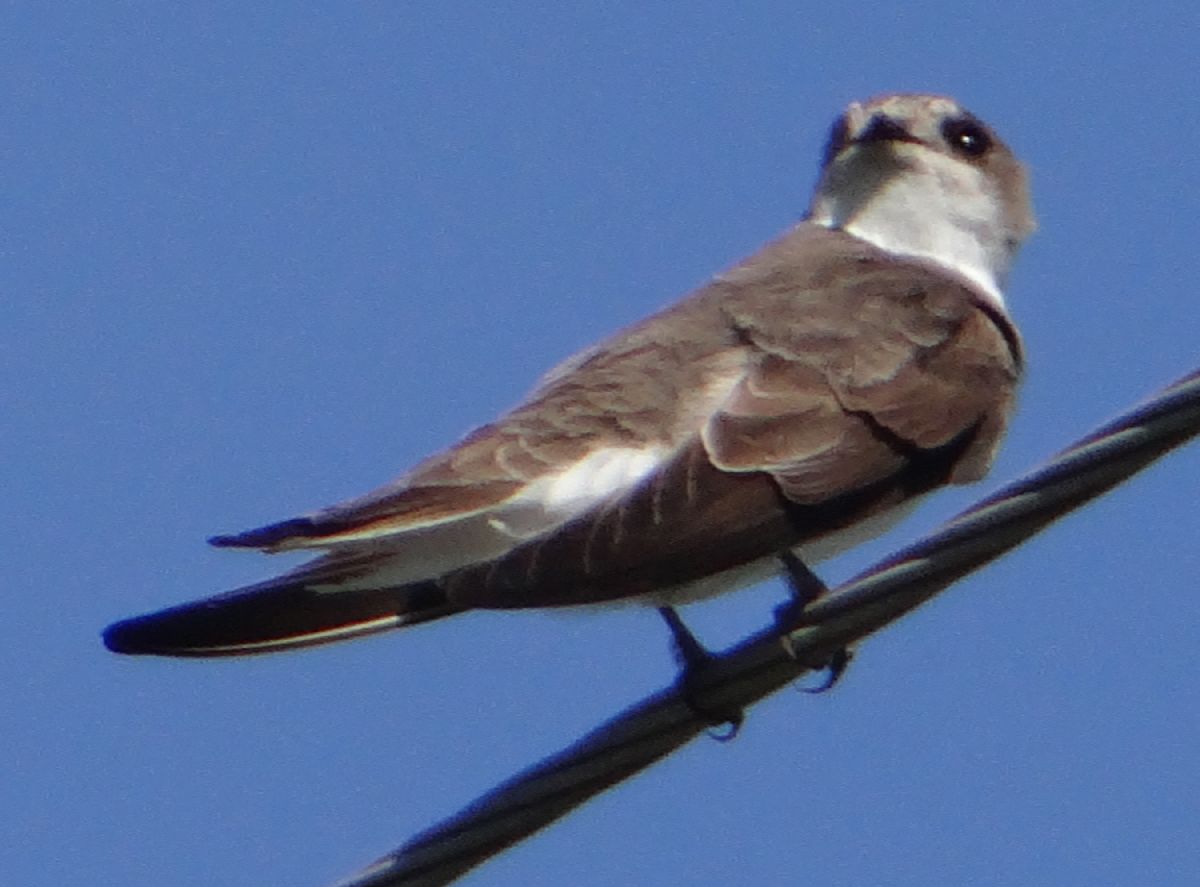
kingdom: Animalia
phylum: Chordata
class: Aves
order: Passeriformes
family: Hirundinidae
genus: Riparia
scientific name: Riparia riparia
